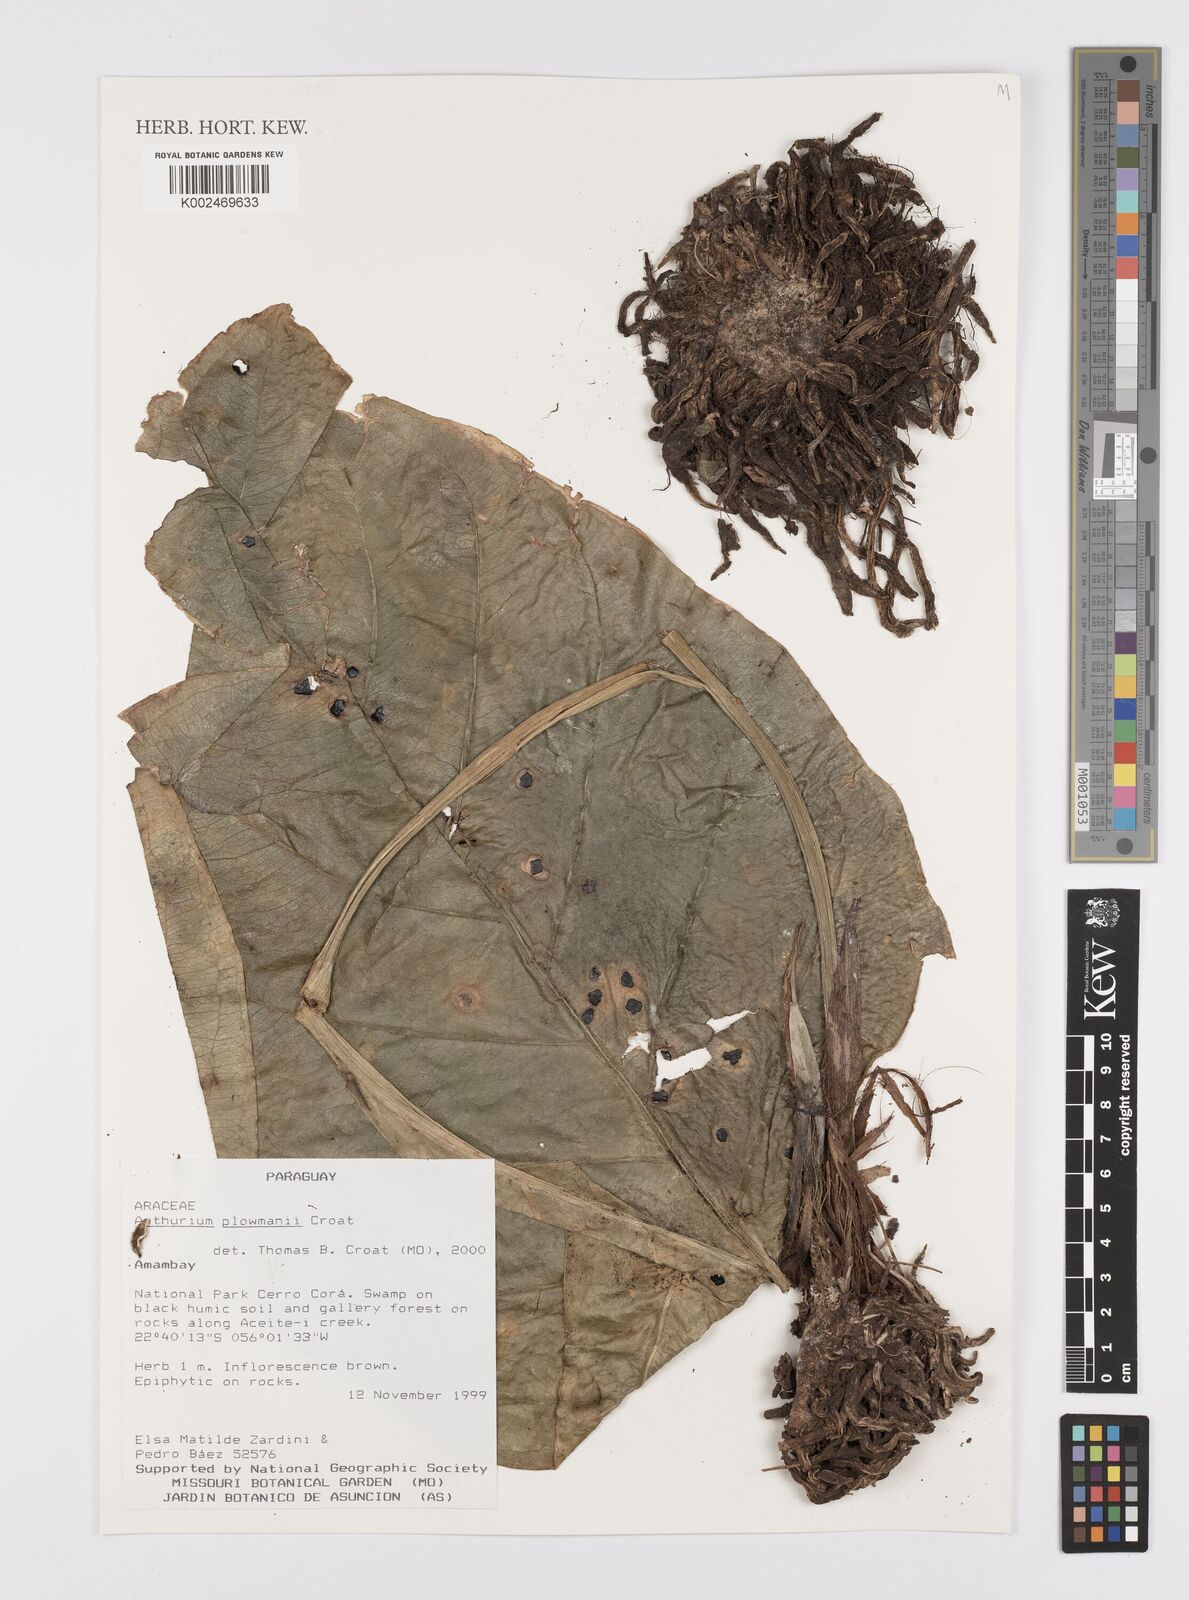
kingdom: Plantae
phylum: Tracheophyta
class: Liliopsida
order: Alismatales
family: Araceae
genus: Anthurium
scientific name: Anthurium plowmanii
